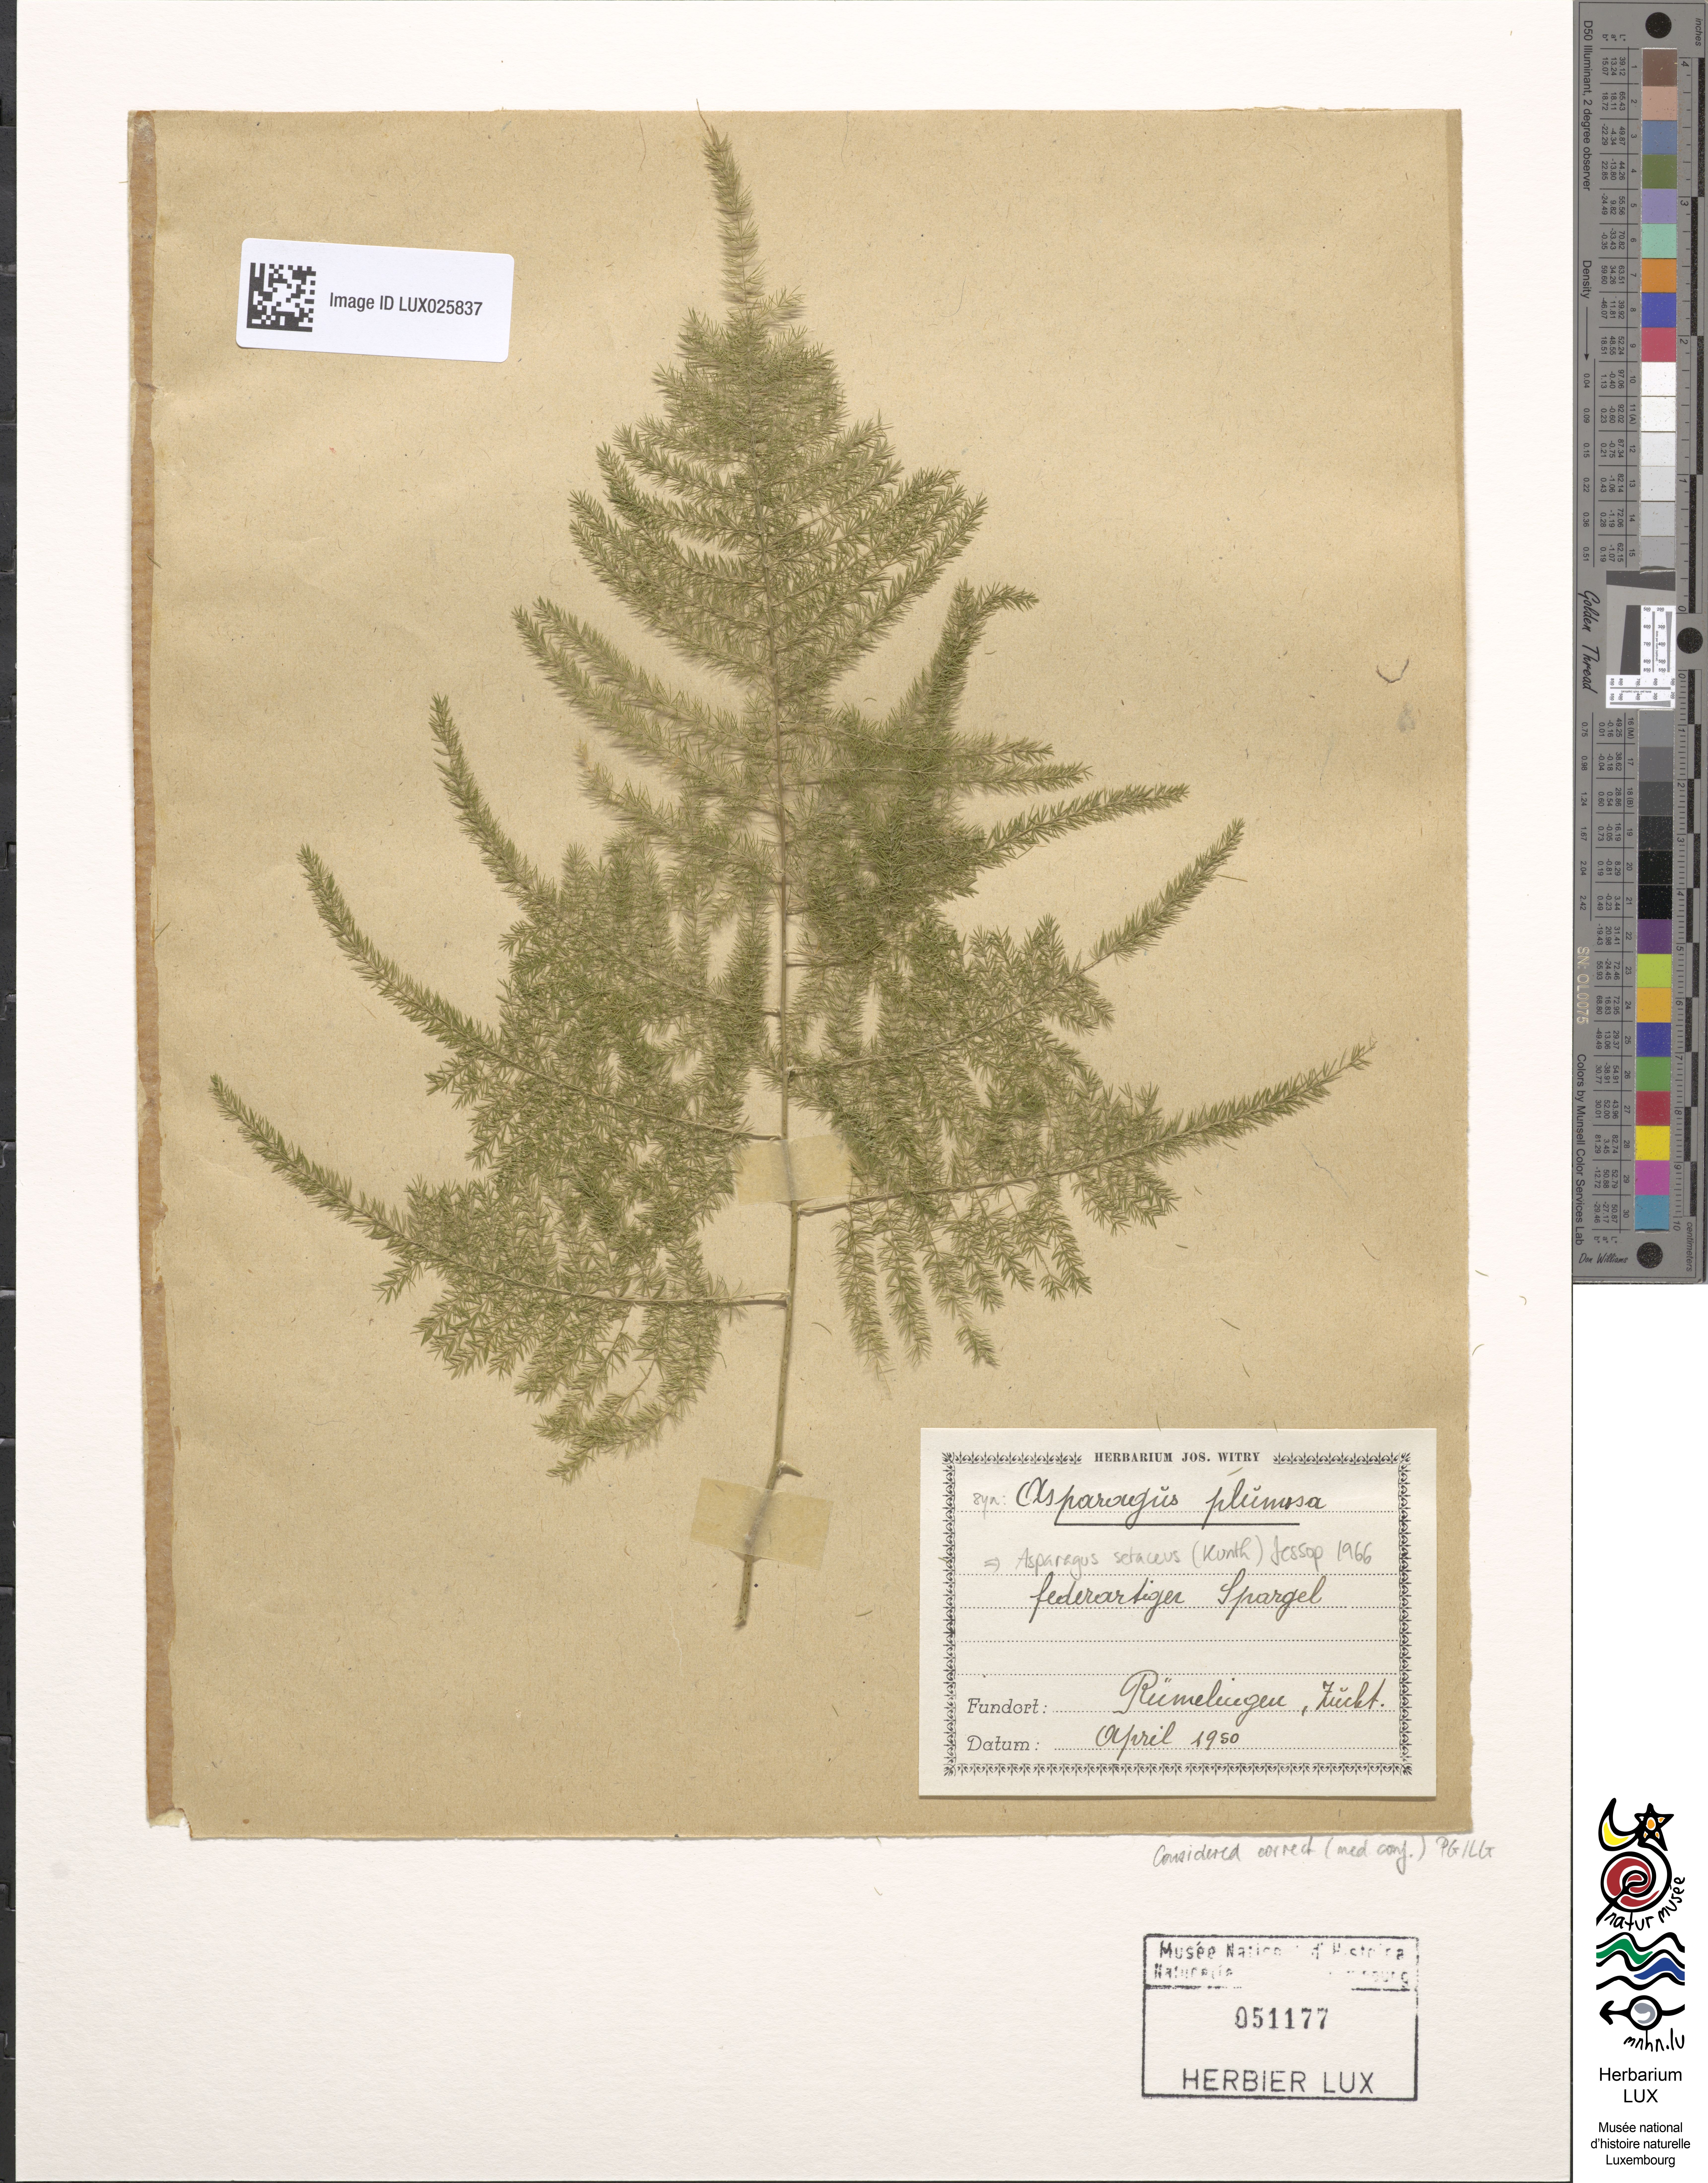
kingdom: Plantae
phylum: Tracheophyta
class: Liliopsida
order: Asparagales
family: Asparagaceae
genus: Asparagus
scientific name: Asparagus setaceus
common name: Common asparagus fern
